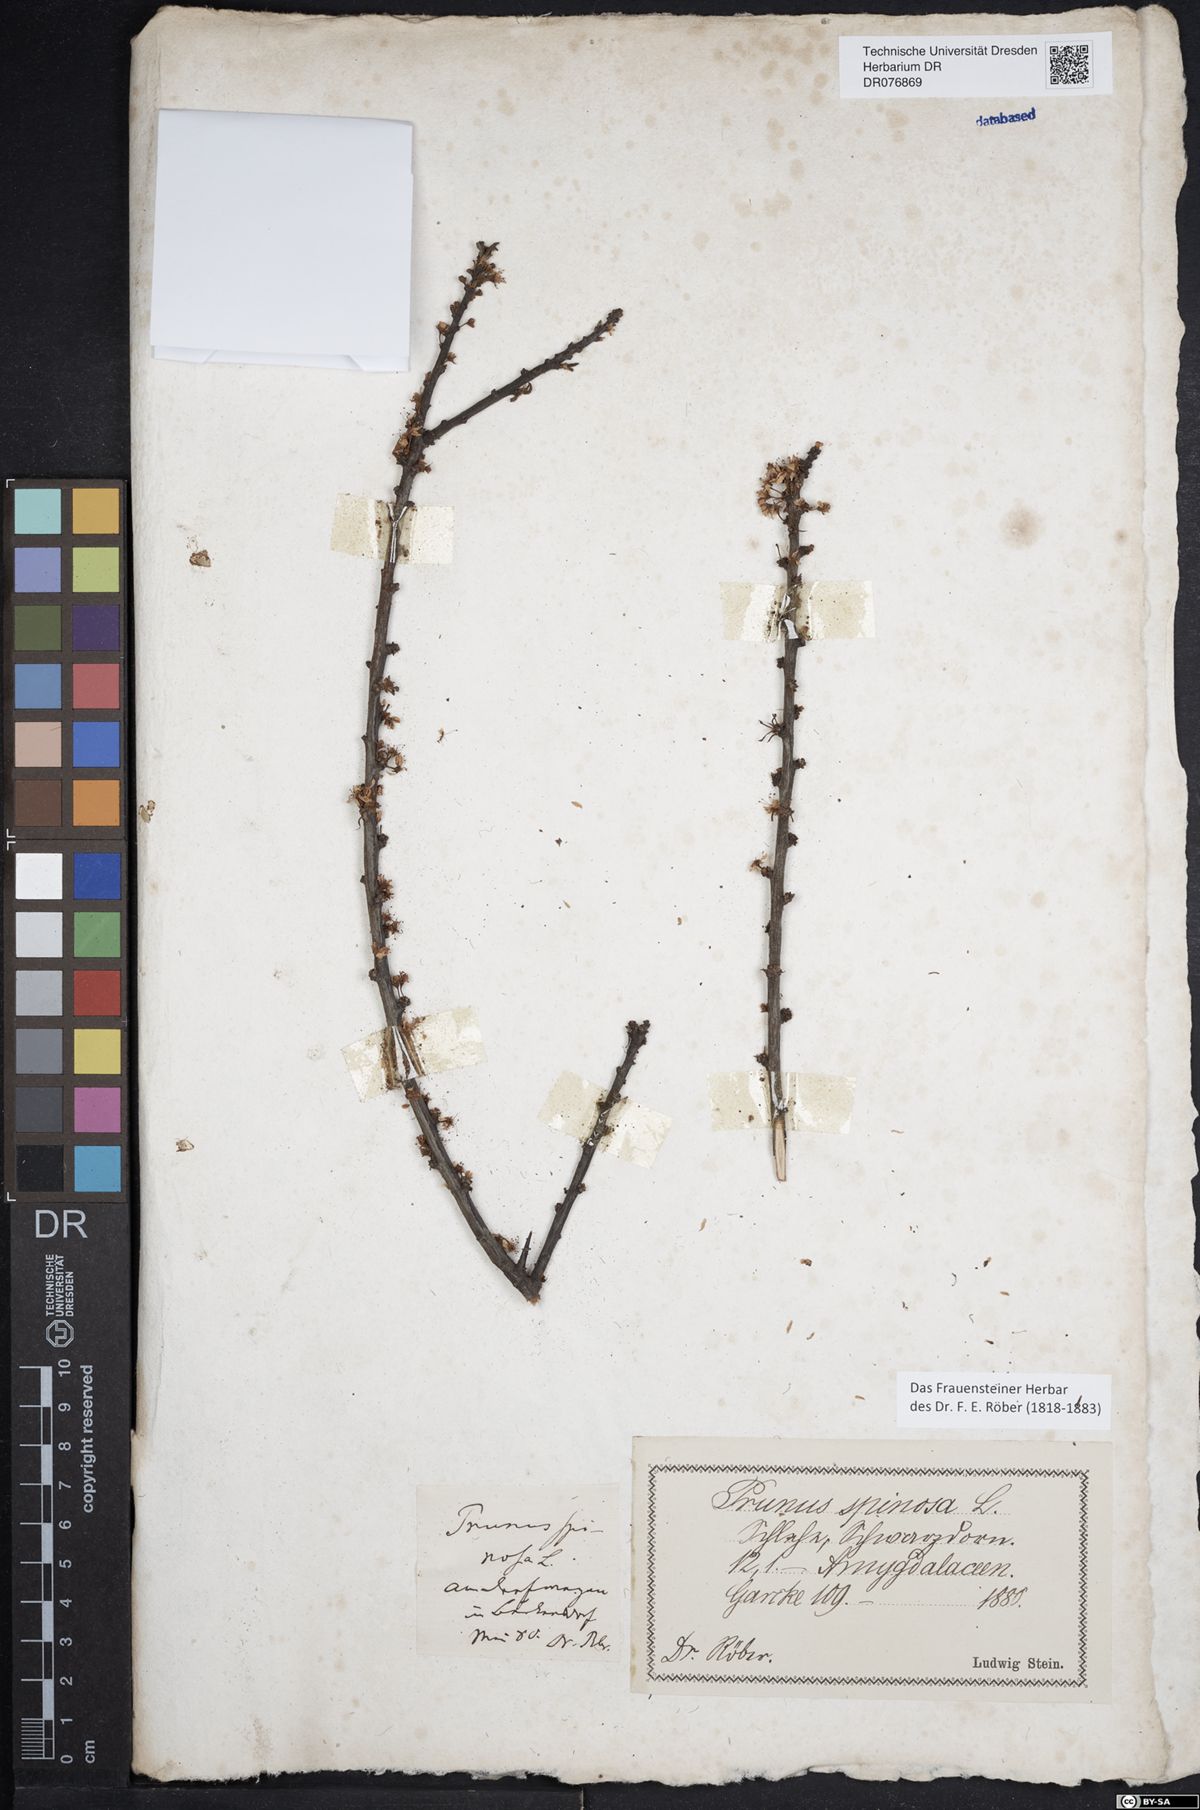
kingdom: Plantae
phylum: Tracheophyta
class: Magnoliopsida
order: Rosales
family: Rosaceae
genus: Prunus
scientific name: Prunus spinosa
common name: Blackthorn
